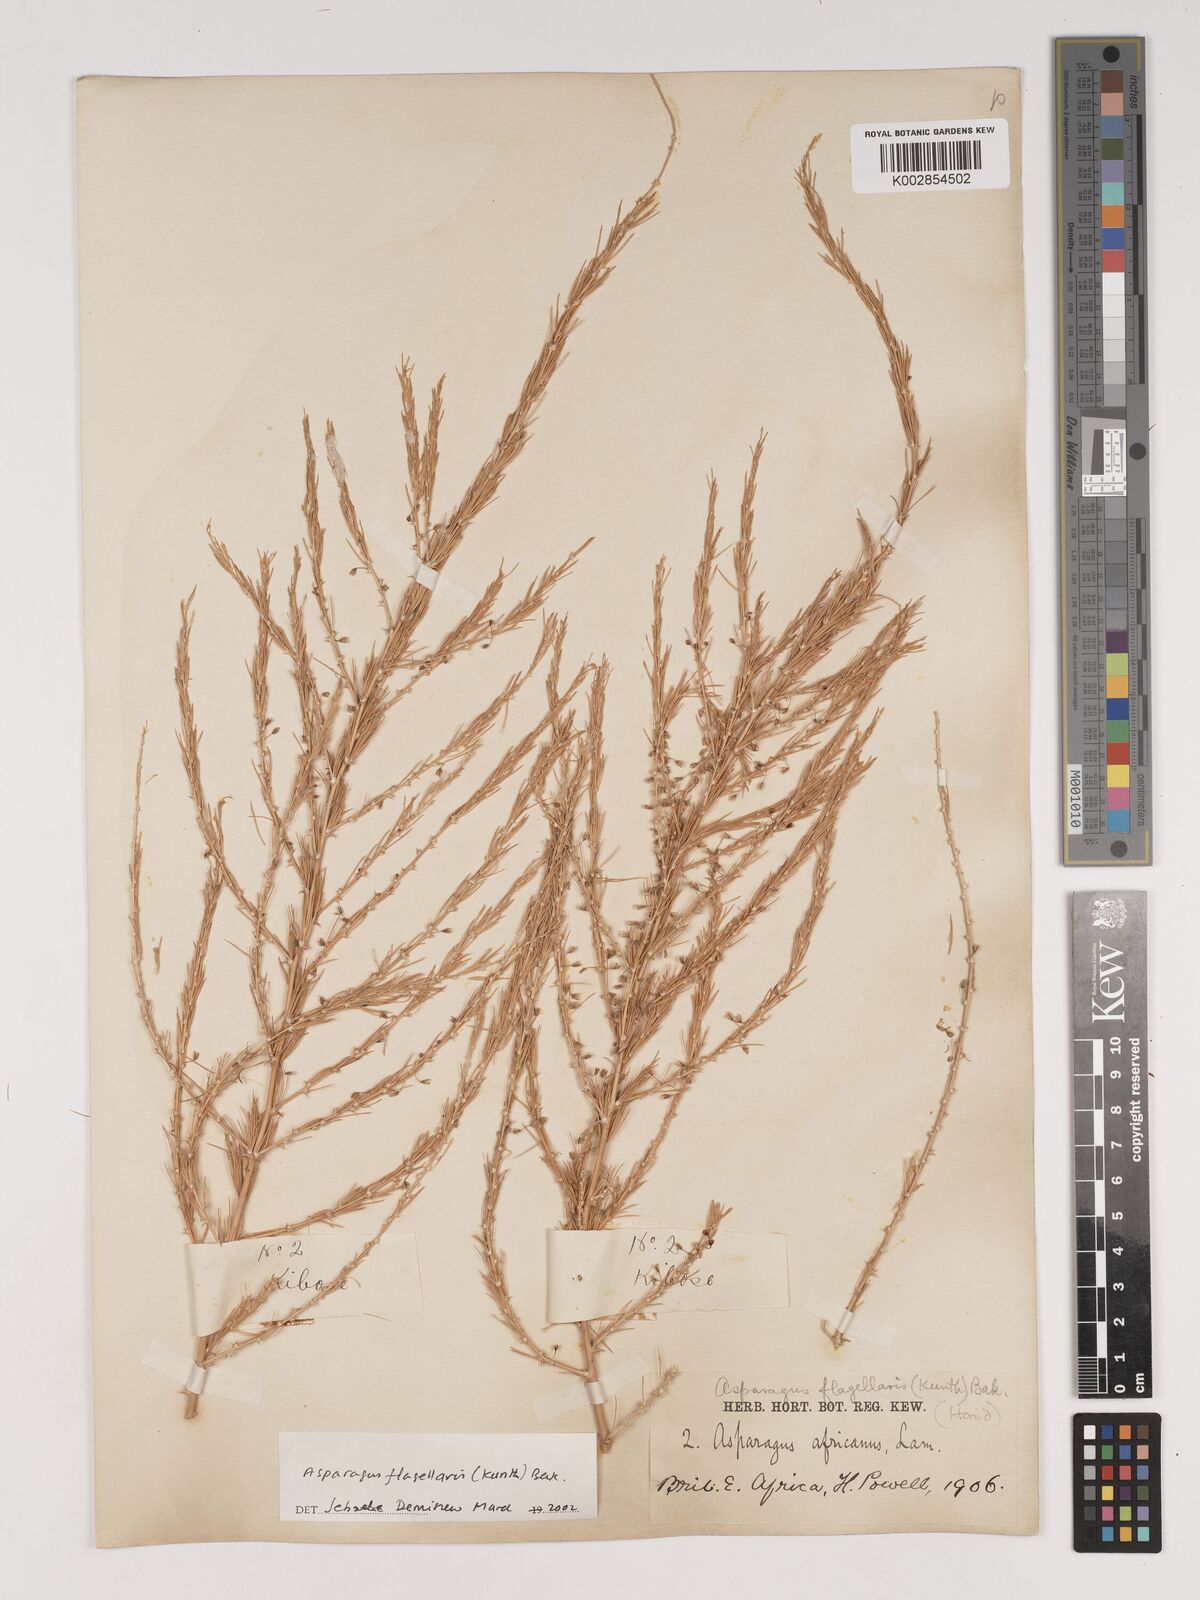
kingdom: Plantae
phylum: Tracheophyta
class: Liliopsida
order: Asparagales
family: Asparagaceae
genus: Asparagus
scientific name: Asparagus flagellaris
